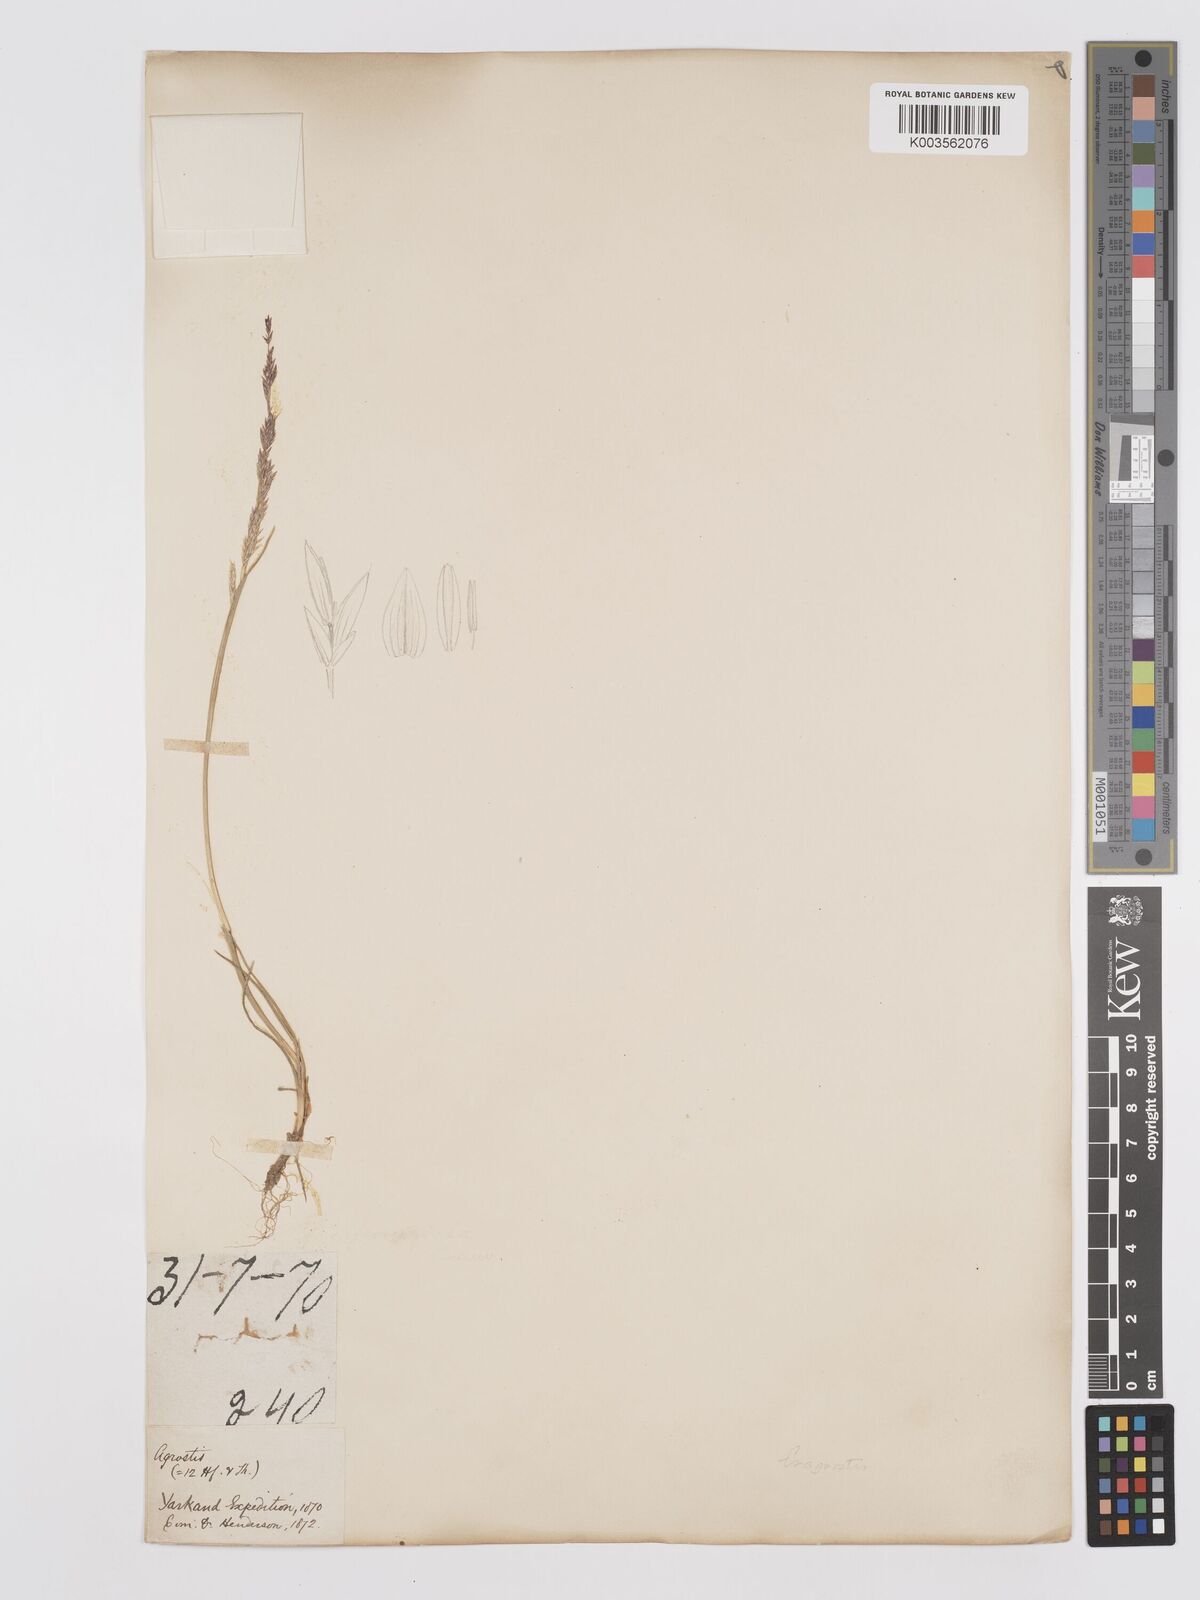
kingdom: Plantae
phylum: Tracheophyta
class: Liliopsida
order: Poales
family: Poaceae
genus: Eragrostis
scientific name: Eragrostis ferruginea
